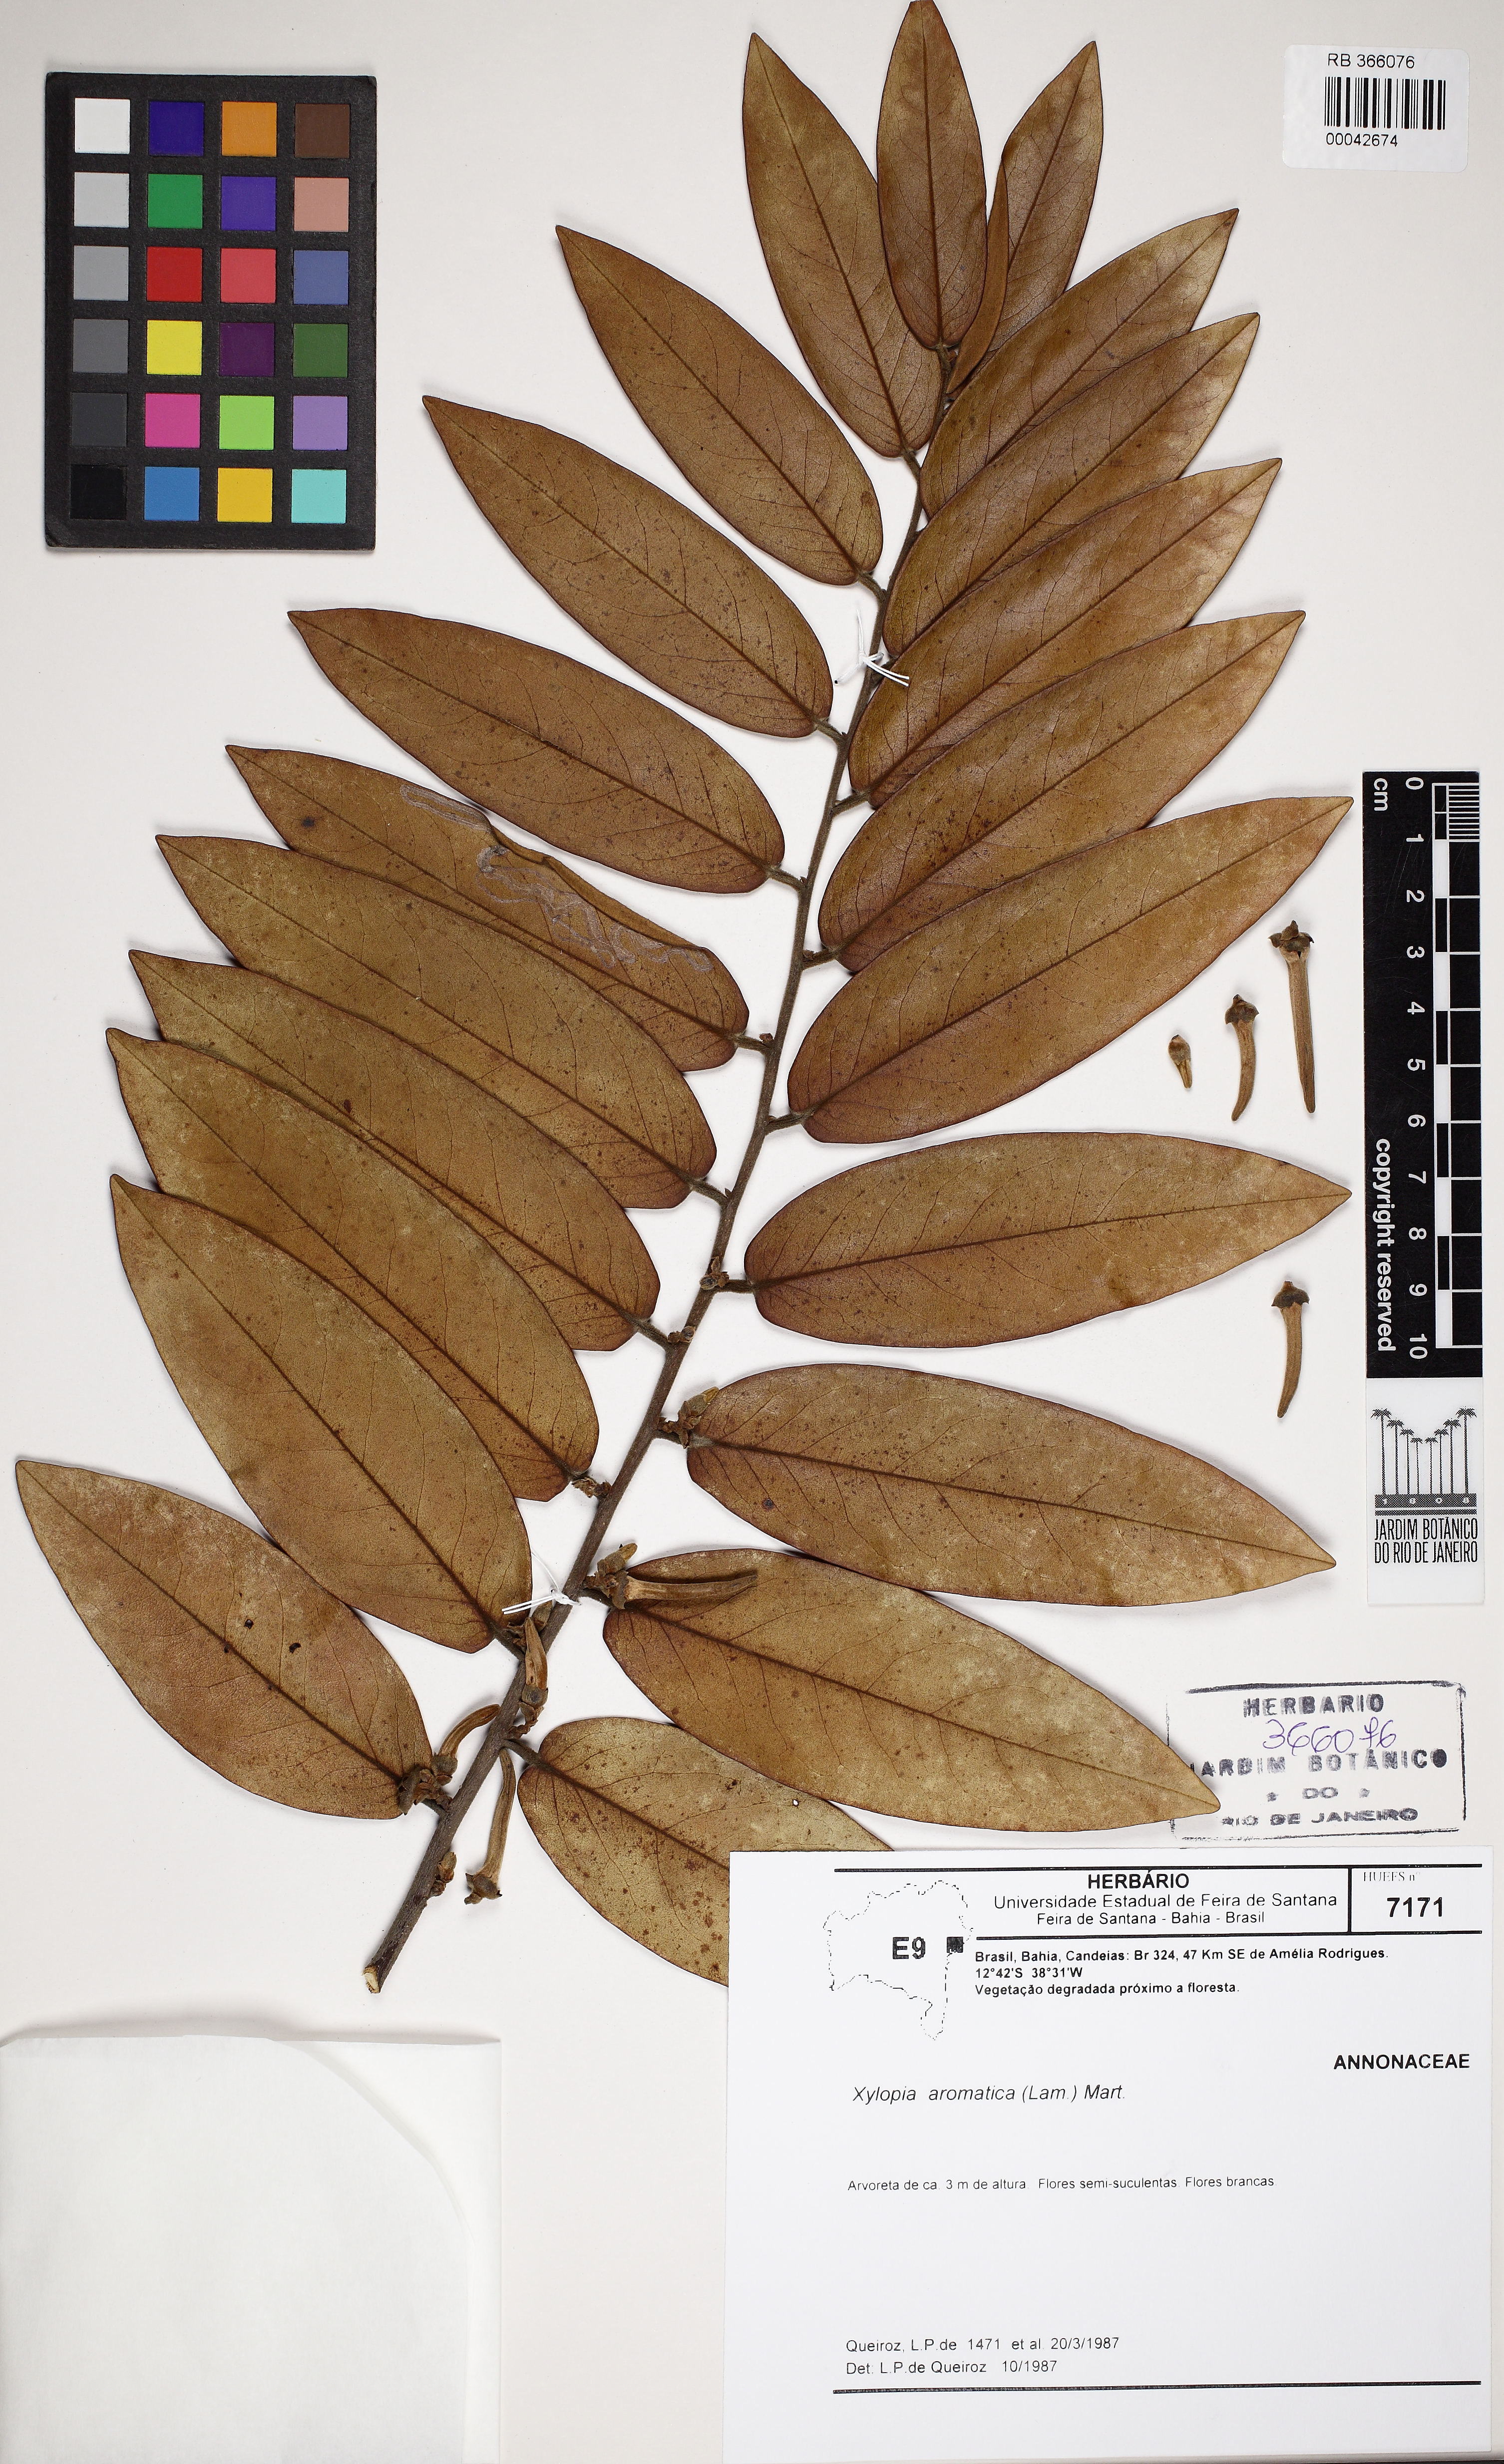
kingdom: Plantae
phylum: Tracheophyta
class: Magnoliopsida
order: Magnoliales
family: Annonaceae
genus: Xylopia
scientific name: Xylopia aromatica
